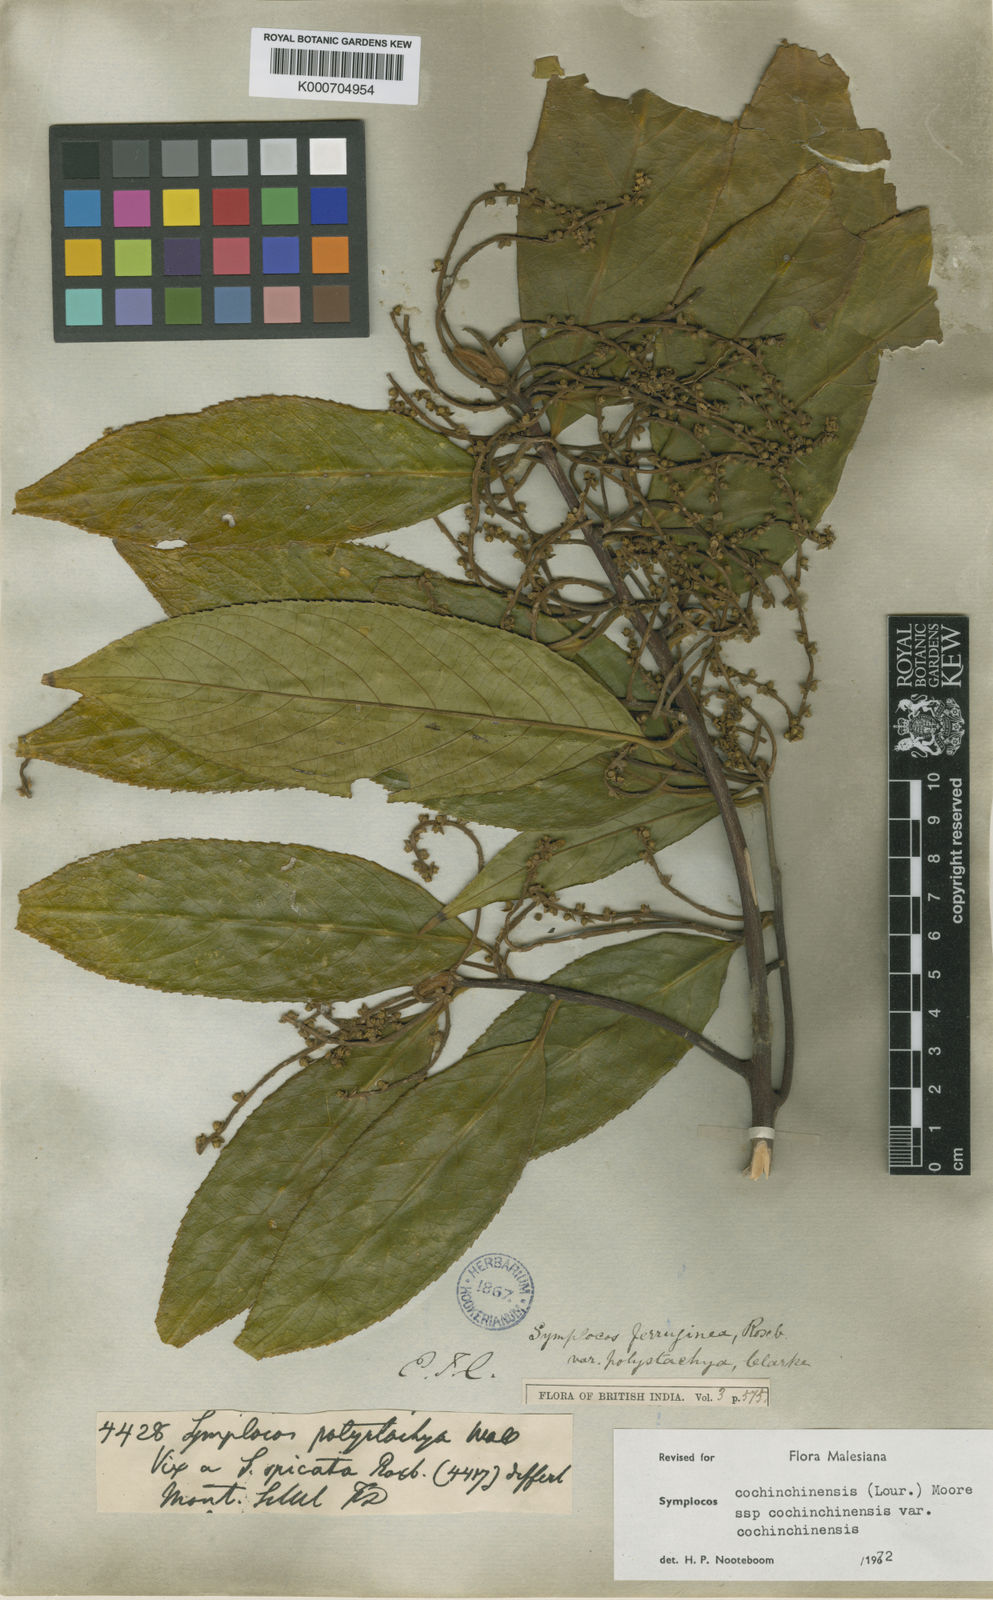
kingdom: Plantae
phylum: Tracheophyta
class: Magnoliopsida
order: Ericales
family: Symplocaceae
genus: Symplocos
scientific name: Symplocos cochinchinensis
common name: Buff hazelwood
